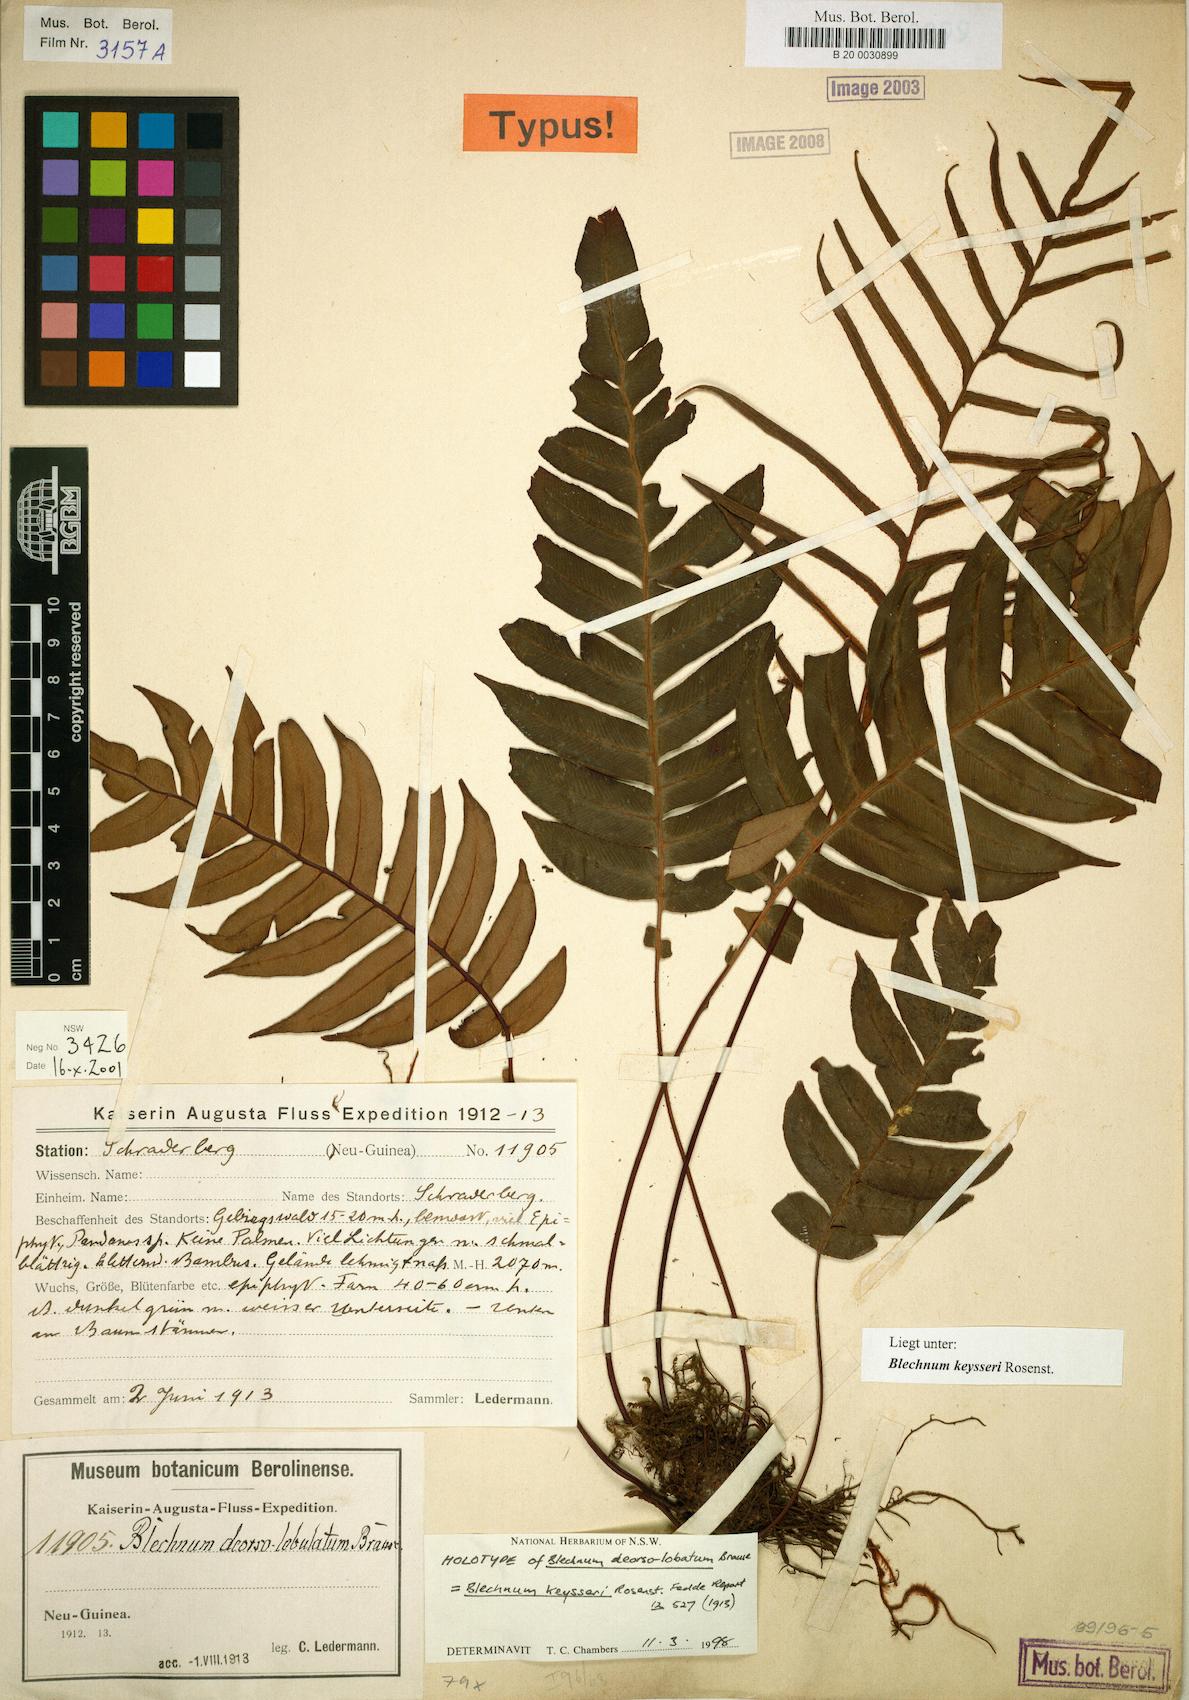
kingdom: Plantae
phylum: Tracheophyta
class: Polypodiopsida
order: Polypodiales
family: Blechnaceae
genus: Austroblechnum
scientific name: Austroblechnum keysseri
